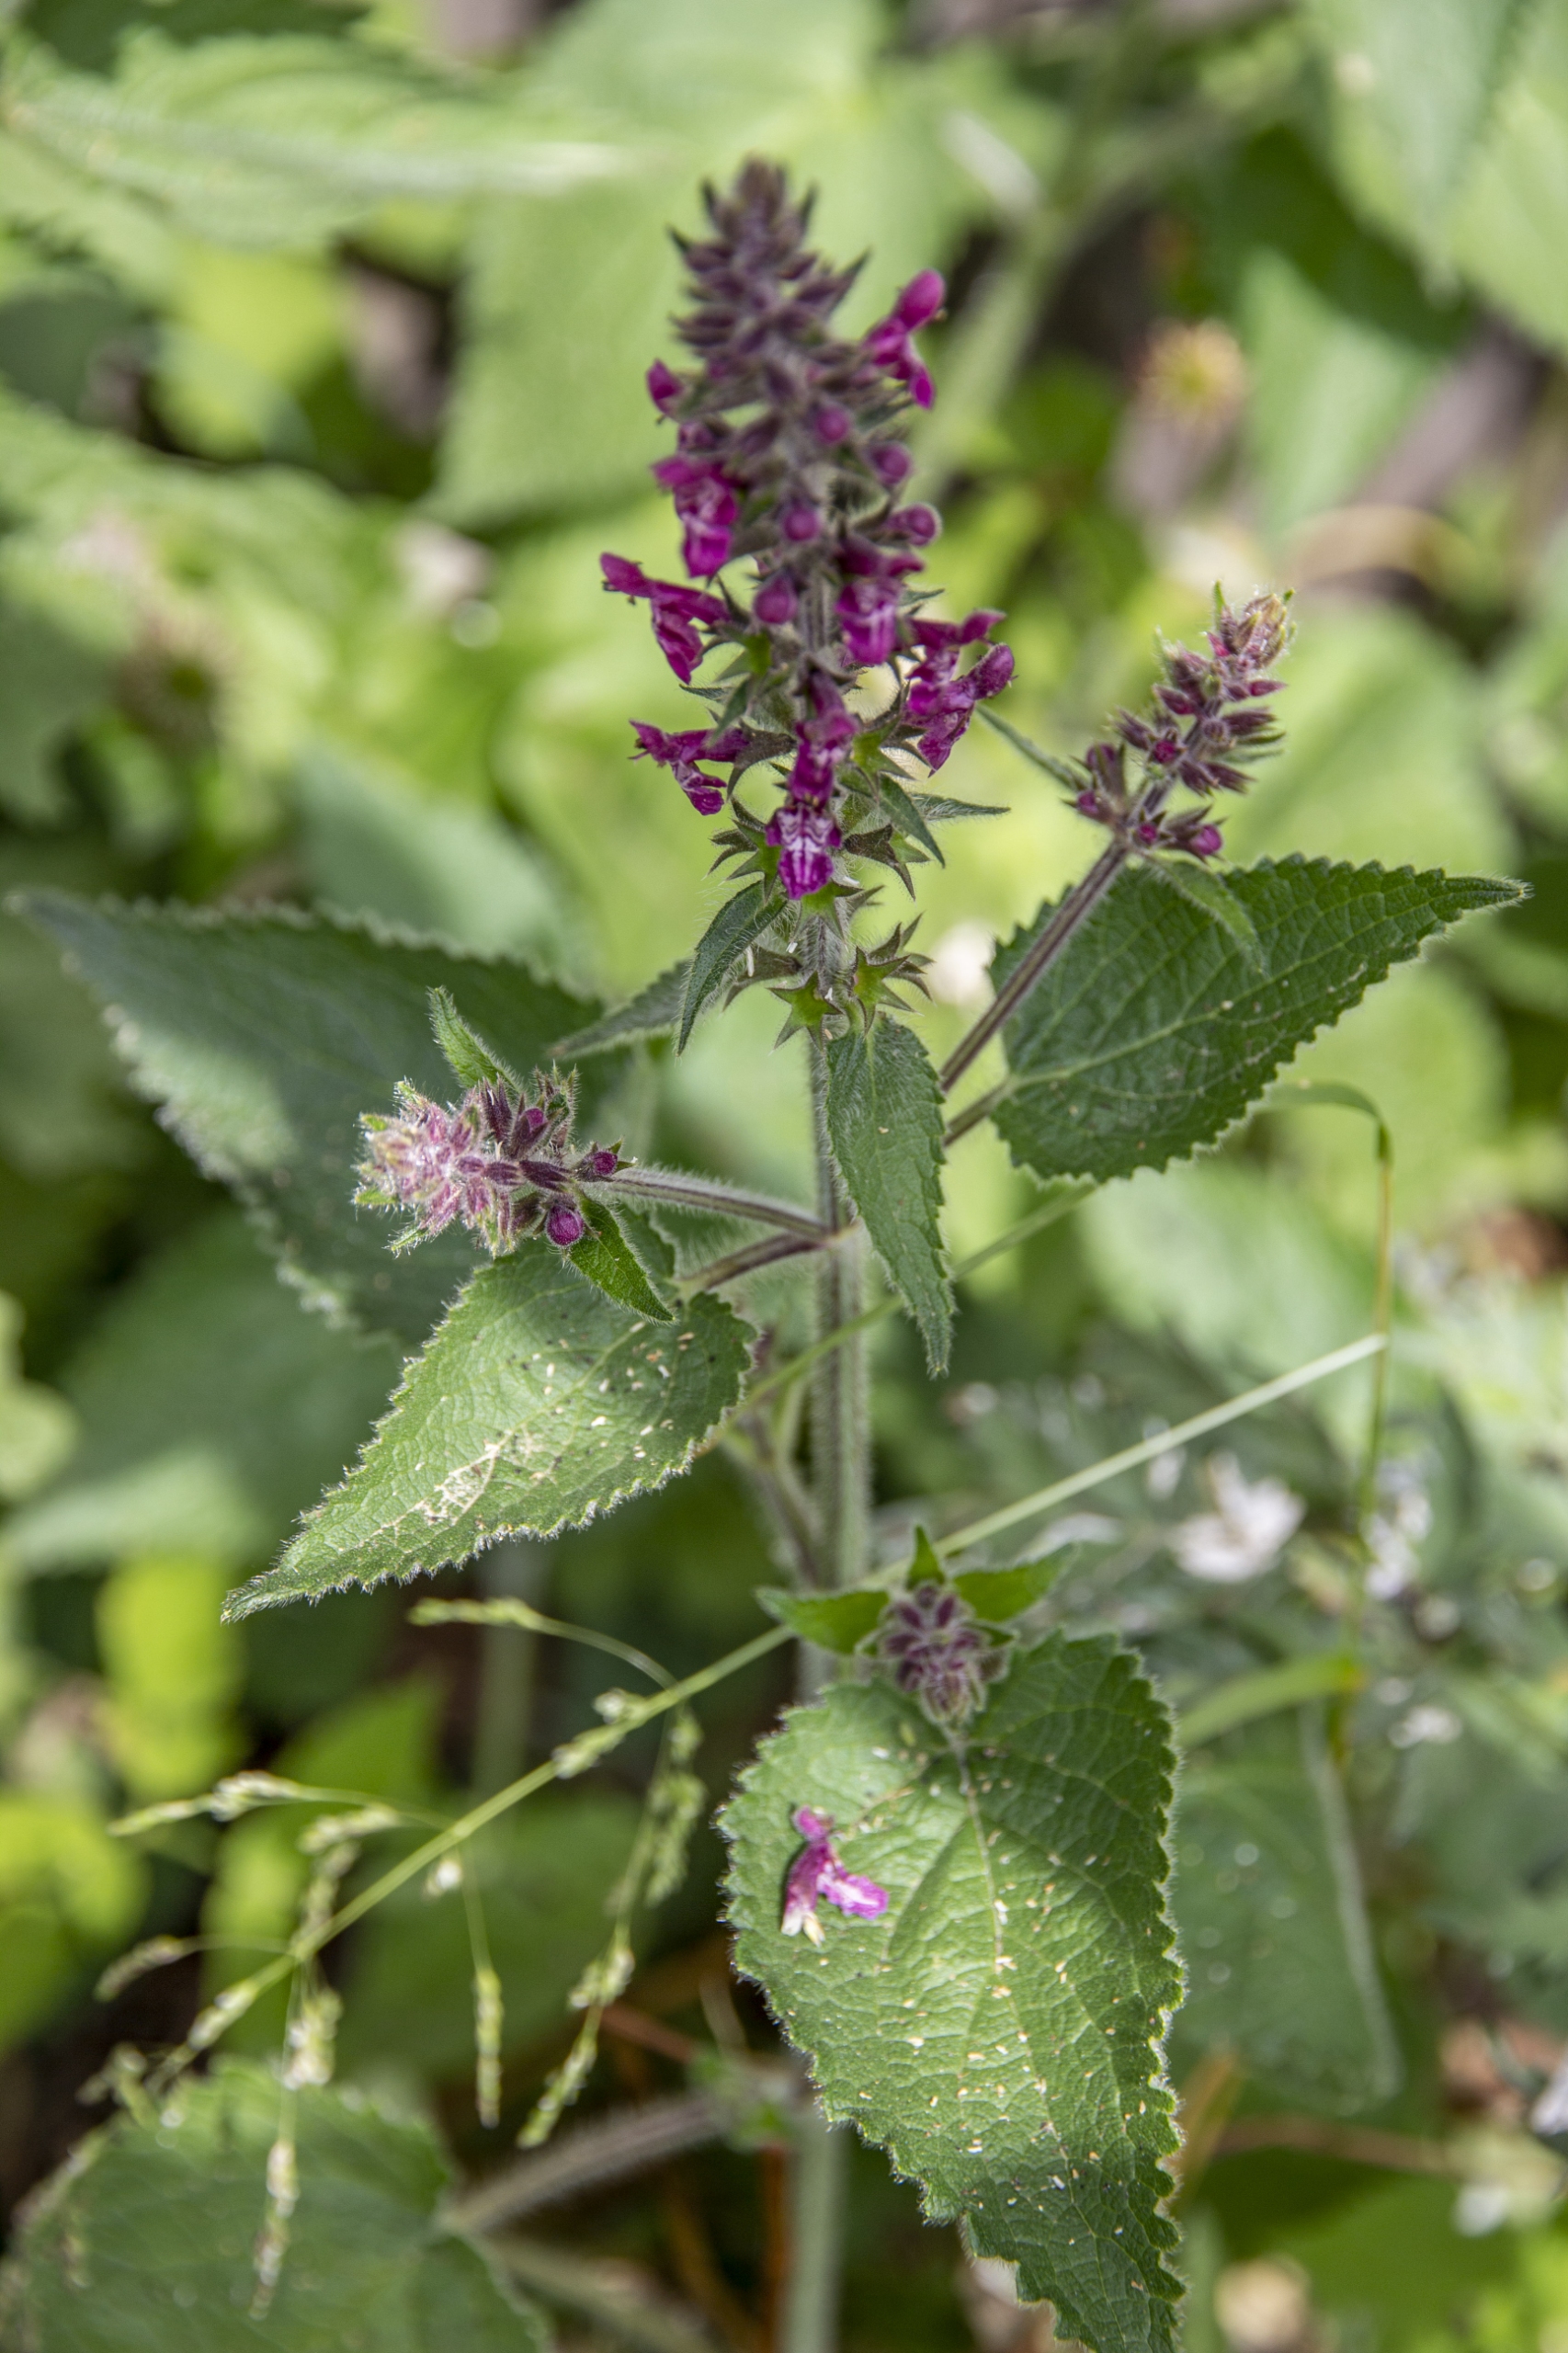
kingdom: Plantae
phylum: Tracheophyta
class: Magnoliopsida
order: Lamiales
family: Lamiaceae
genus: Stachys
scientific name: Stachys sylvatica
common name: Skov-galtetand
